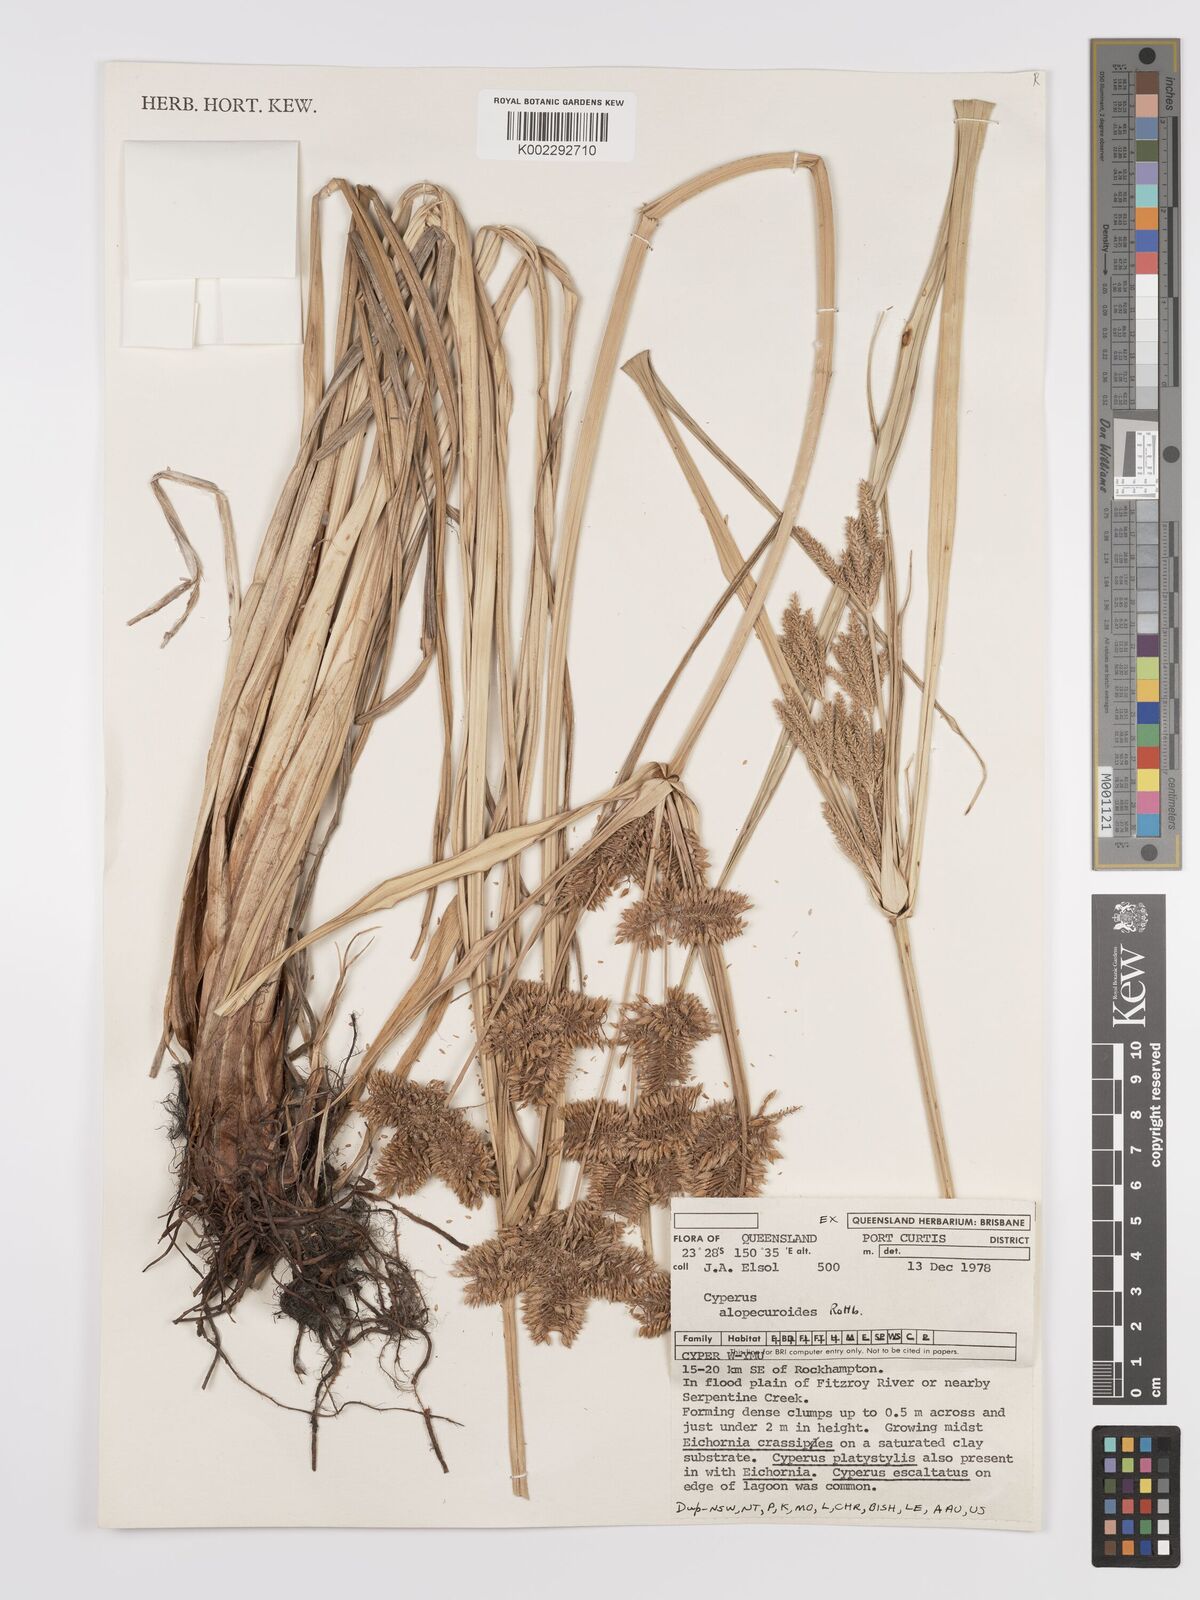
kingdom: Plantae
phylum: Tracheophyta
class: Liliopsida
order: Poales
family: Cyperaceae
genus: Cyperus
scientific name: Cyperus alopecuroides
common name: Foxtail flatsedge
